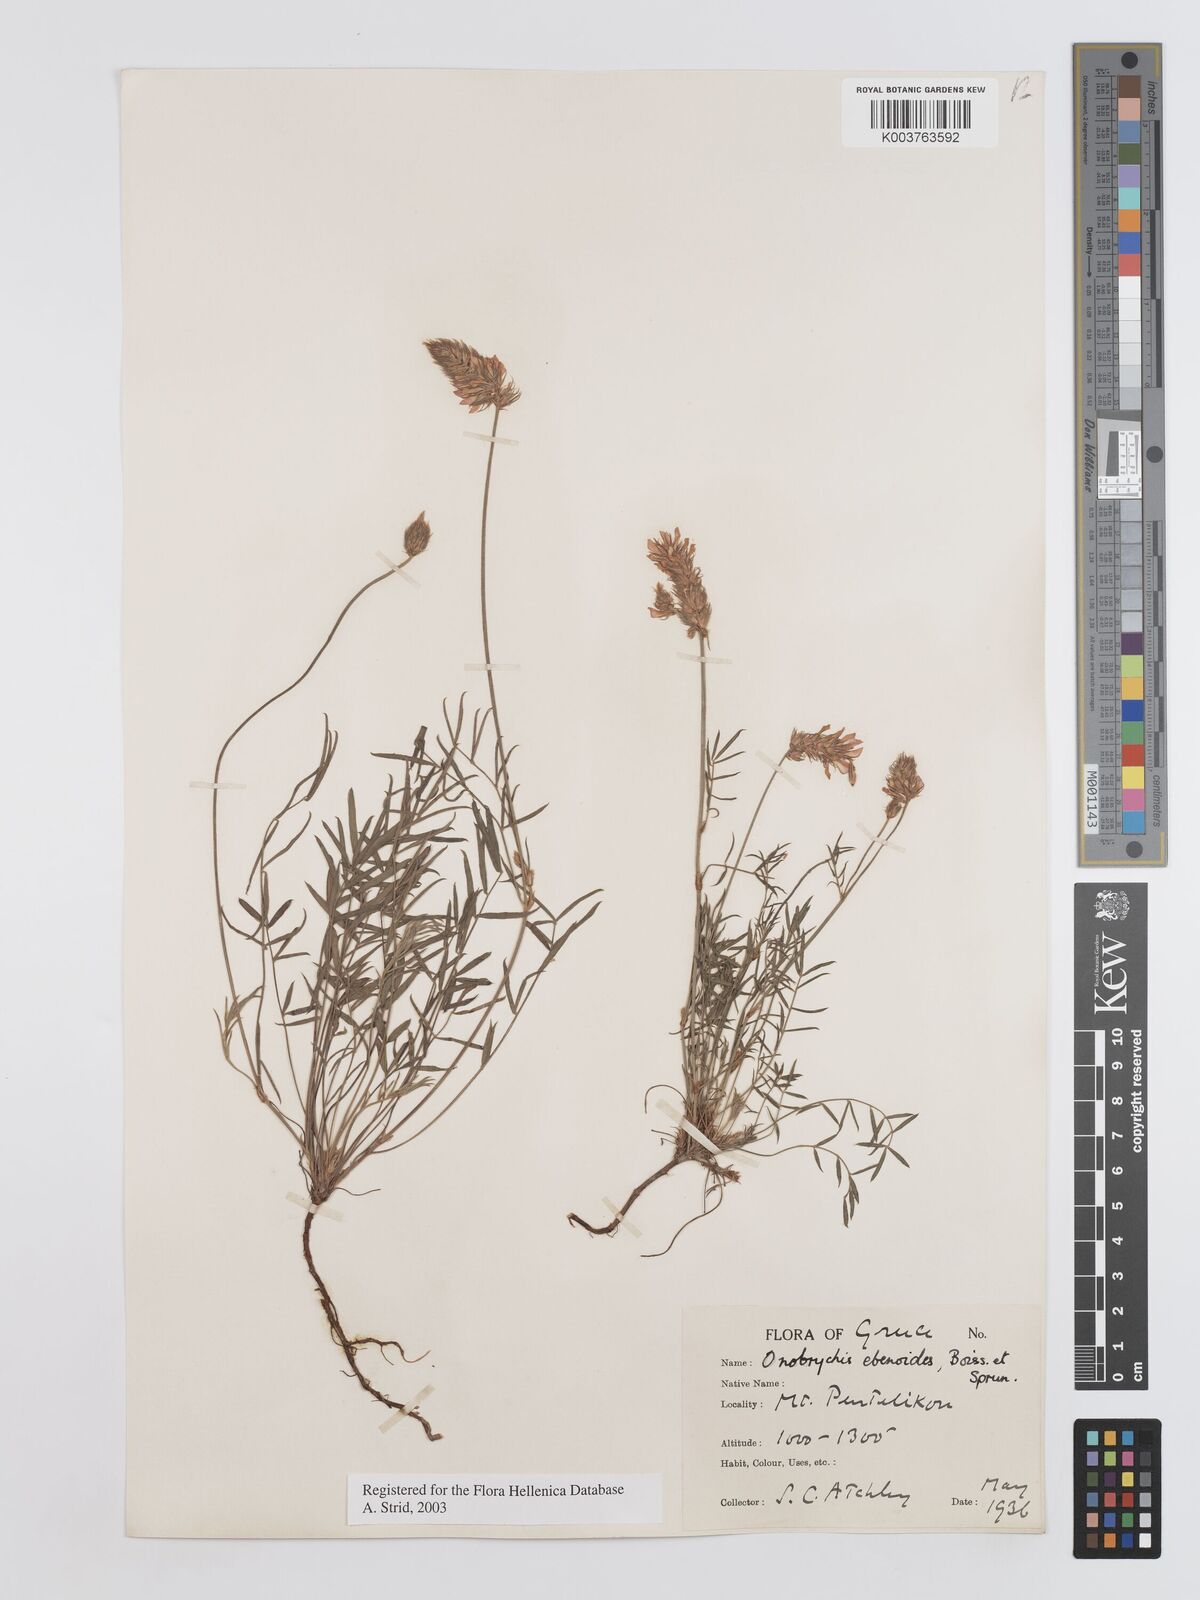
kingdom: Plantae
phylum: Tracheophyta
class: Magnoliopsida
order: Fabales
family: Fabaceae
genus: Onobrychis
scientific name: Onobrychis ebenoides
